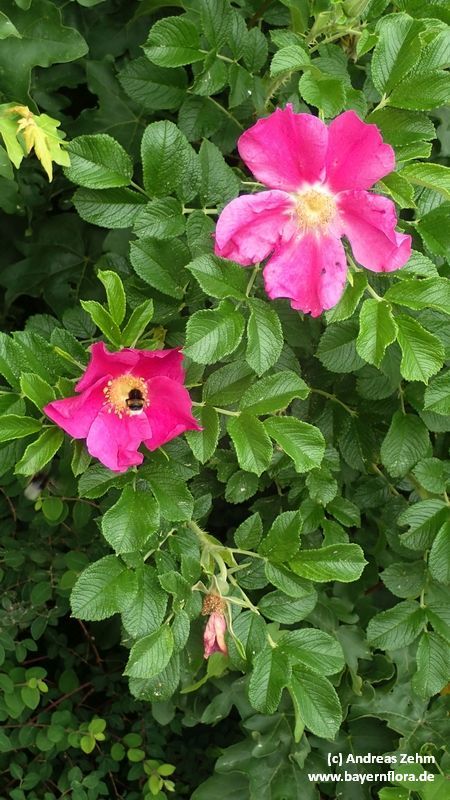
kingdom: Plantae
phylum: Tracheophyta
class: Magnoliopsida
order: Rosales
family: Rosaceae
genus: Rosa
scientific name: Rosa rugosa
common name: Japanese rose
